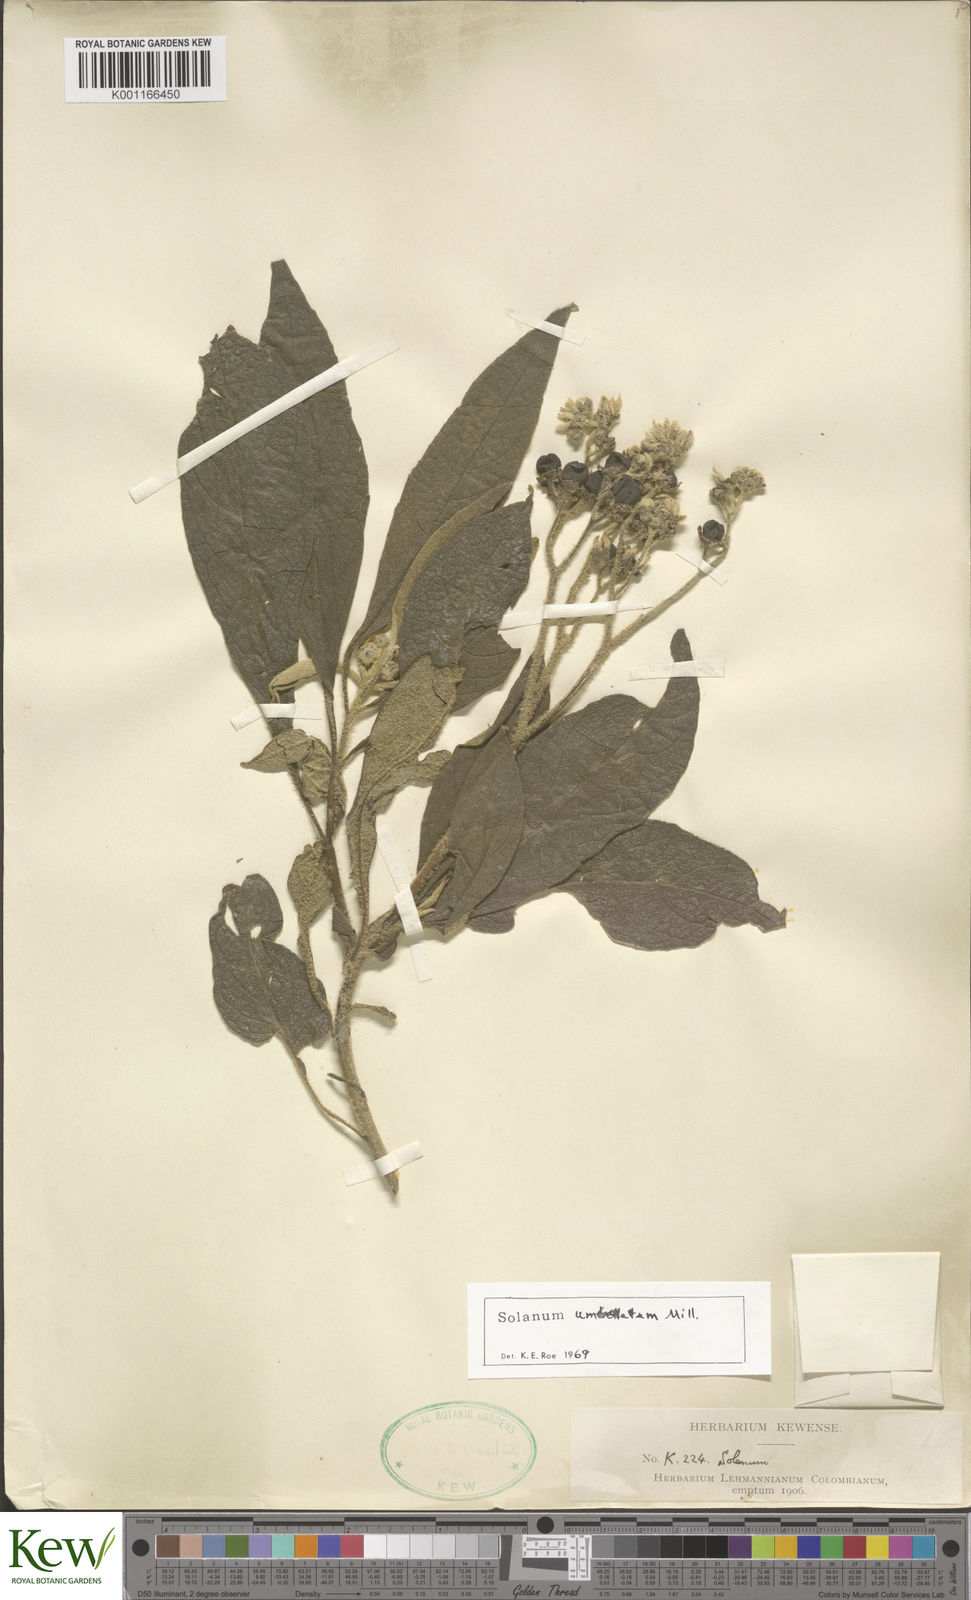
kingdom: Plantae
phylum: Tracheophyta
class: Magnoliopsida
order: Solanales
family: Solanaceae
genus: Solanum
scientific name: Solanum umbellatum
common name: Nightshade
